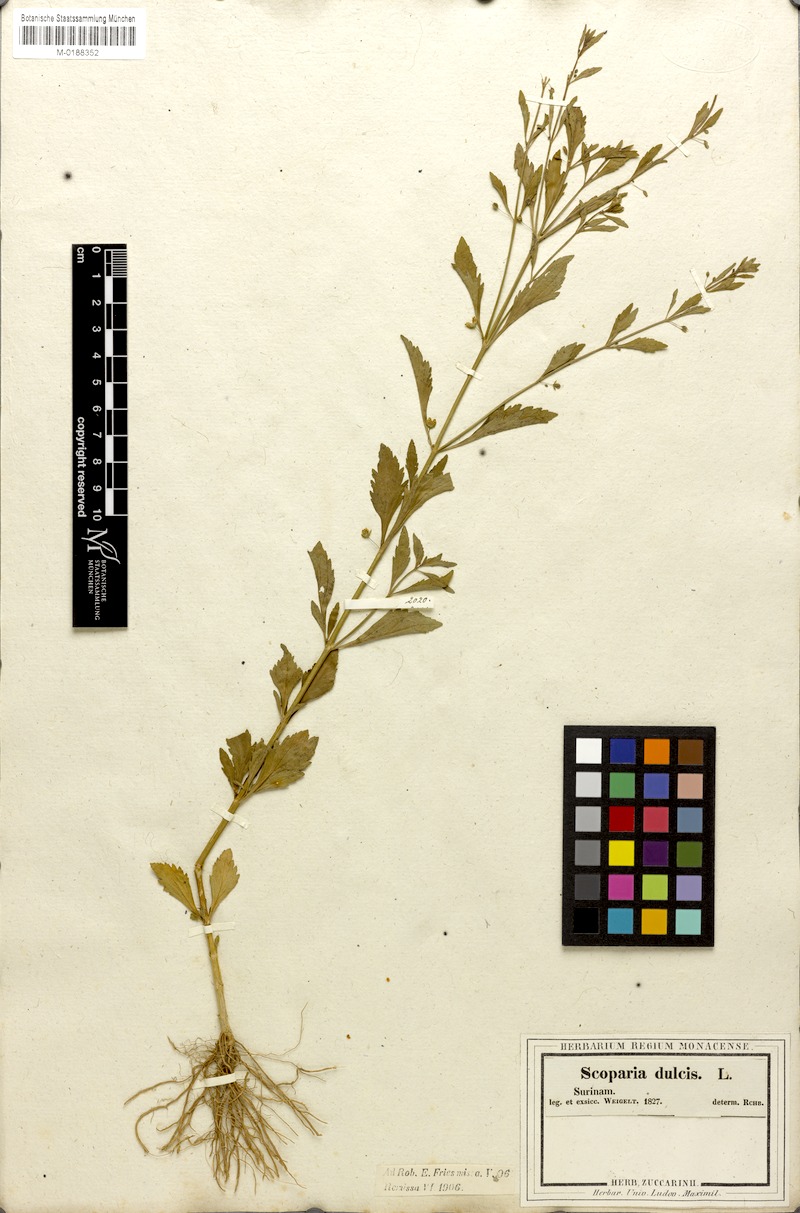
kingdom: Plantae
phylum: Tracheophyta
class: Magnoliopsida
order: Lamiales
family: Plantaginaceae
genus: Scoparia
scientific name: Scoparia dulcis
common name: Scoparia-weed
